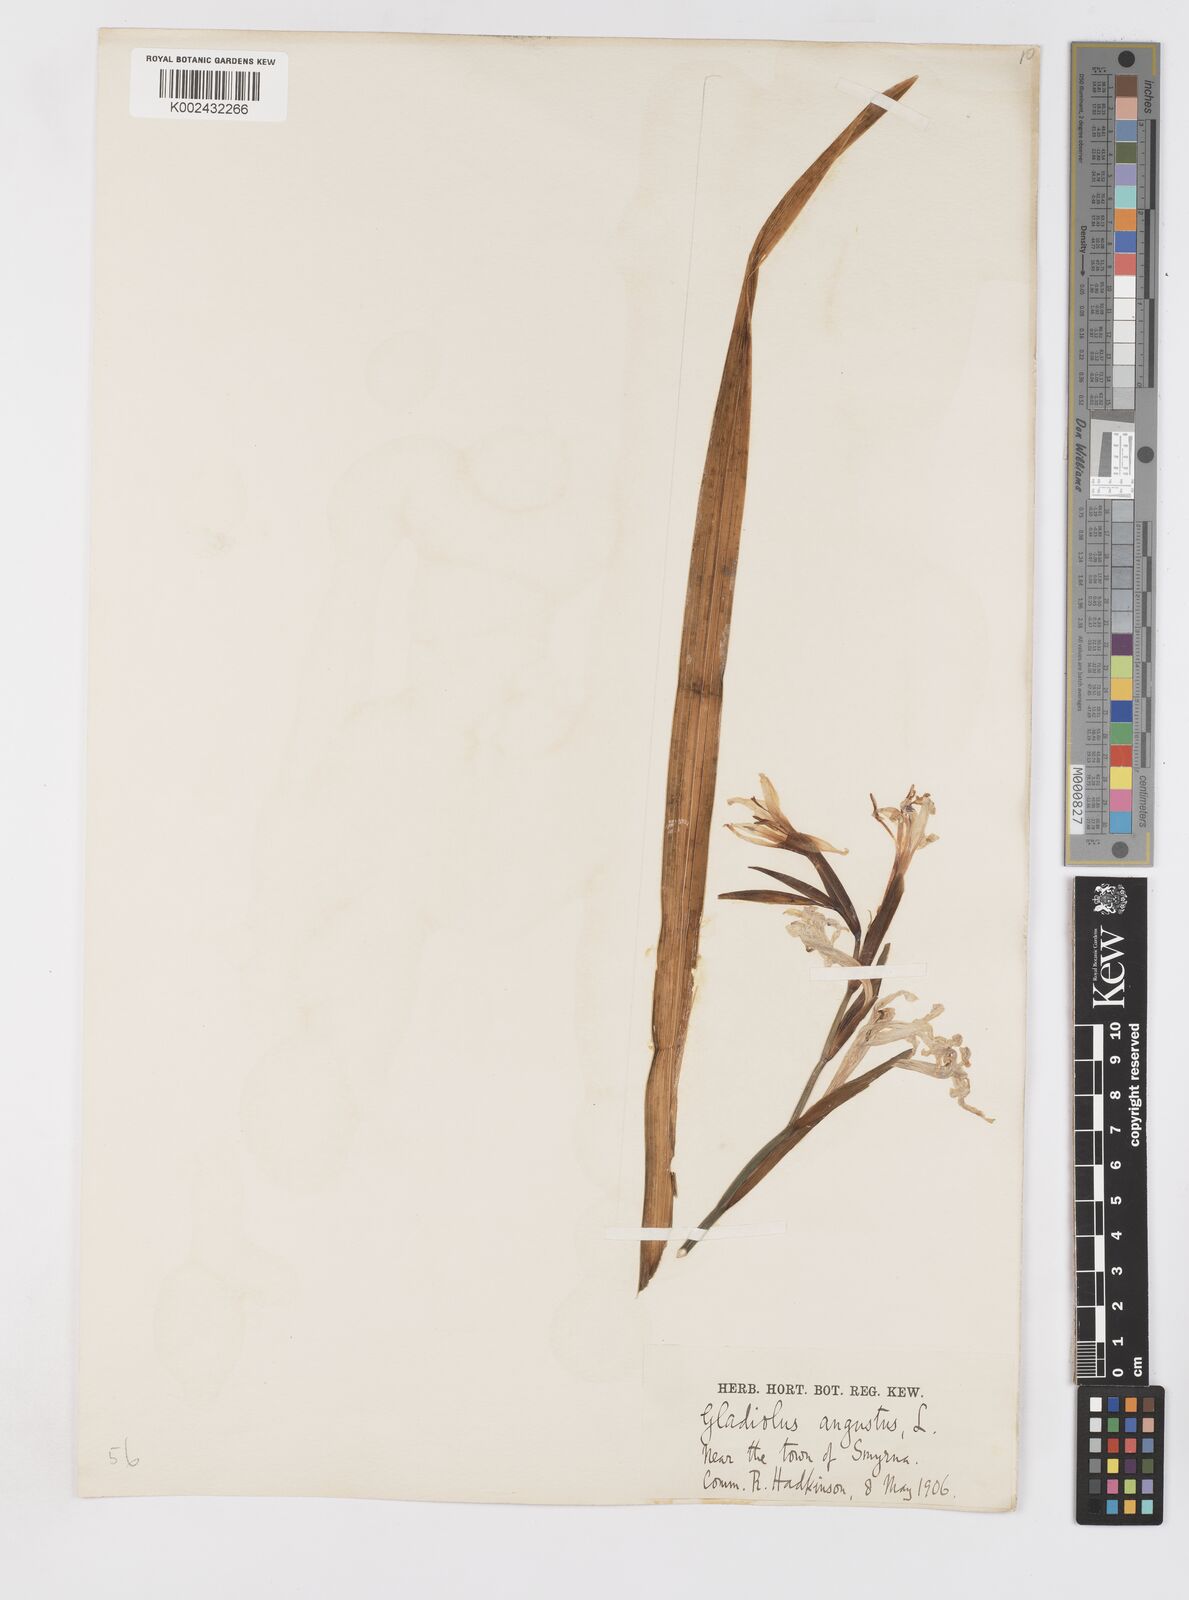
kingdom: Plantae
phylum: Tracheophyta
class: Liliopsida
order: Asparagales
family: Iridaceae
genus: Gladiolus
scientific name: Gladiolus
